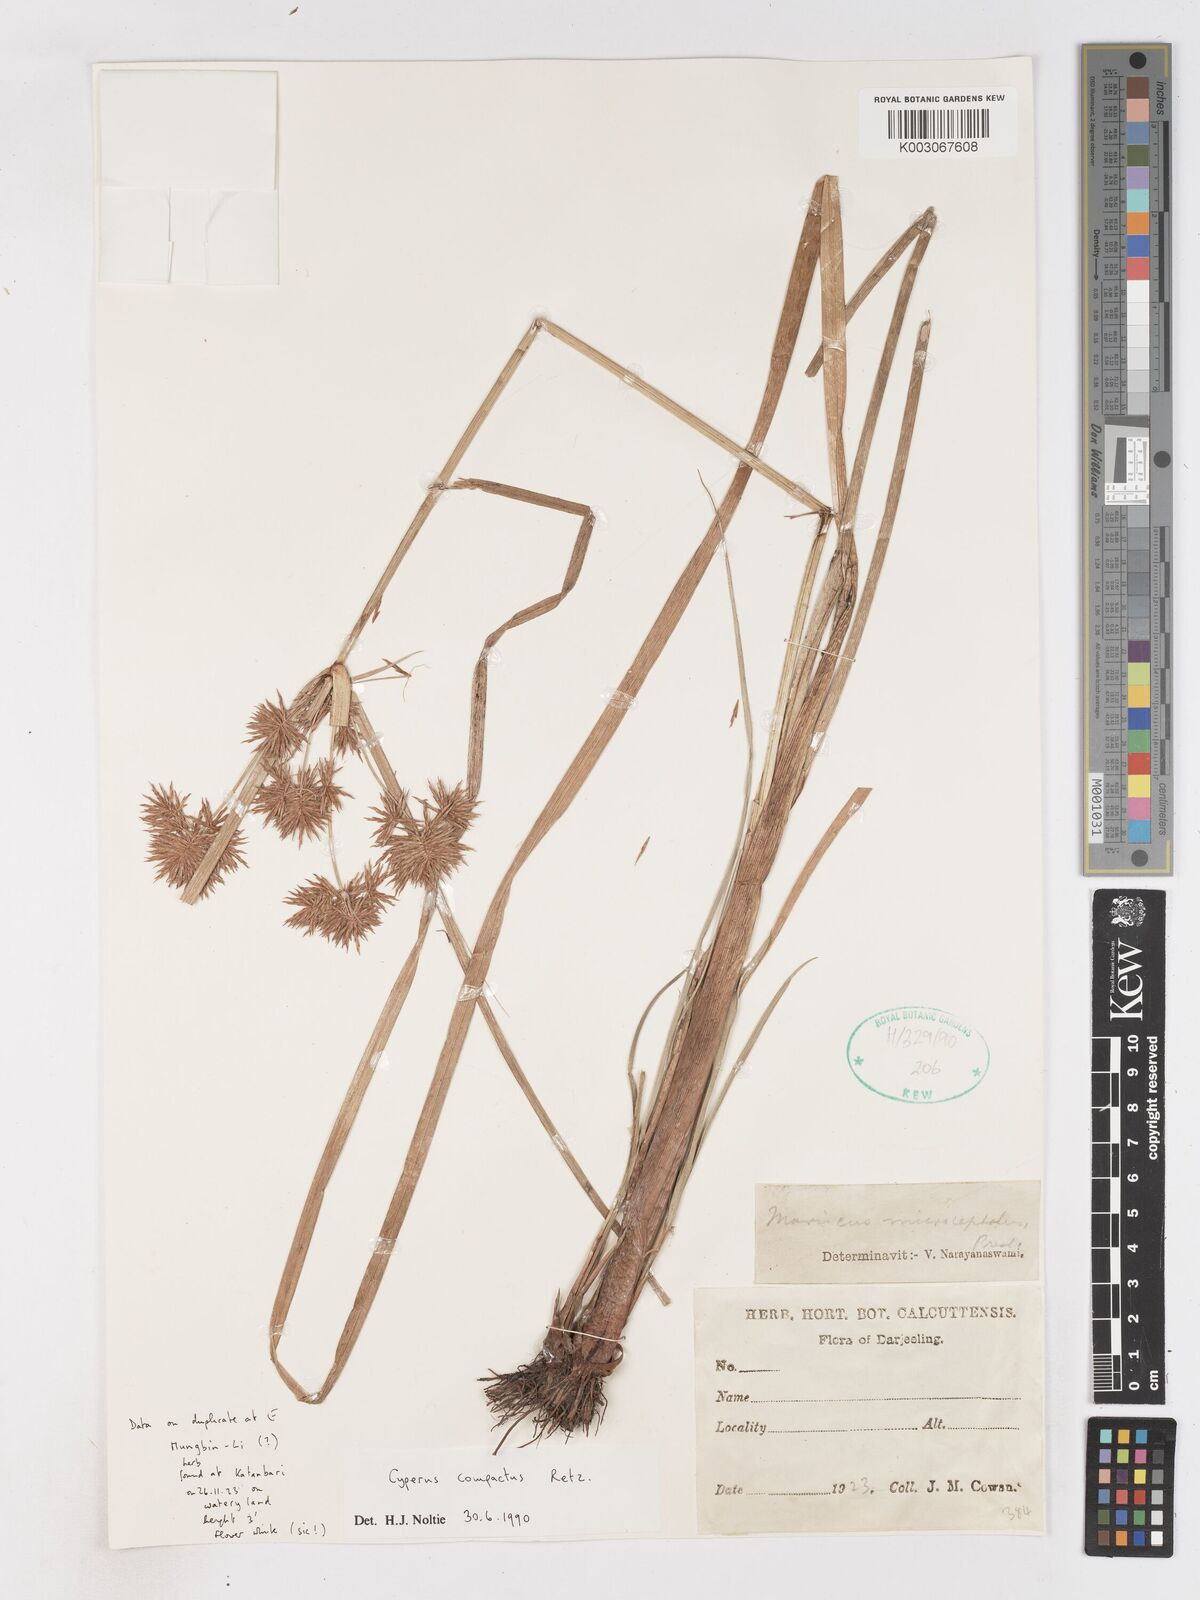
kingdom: Plantae
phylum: Tracheophyta
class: Liliopsida
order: Poales
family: Cyperaceae
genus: Cyperus
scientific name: Cyperus compactus
